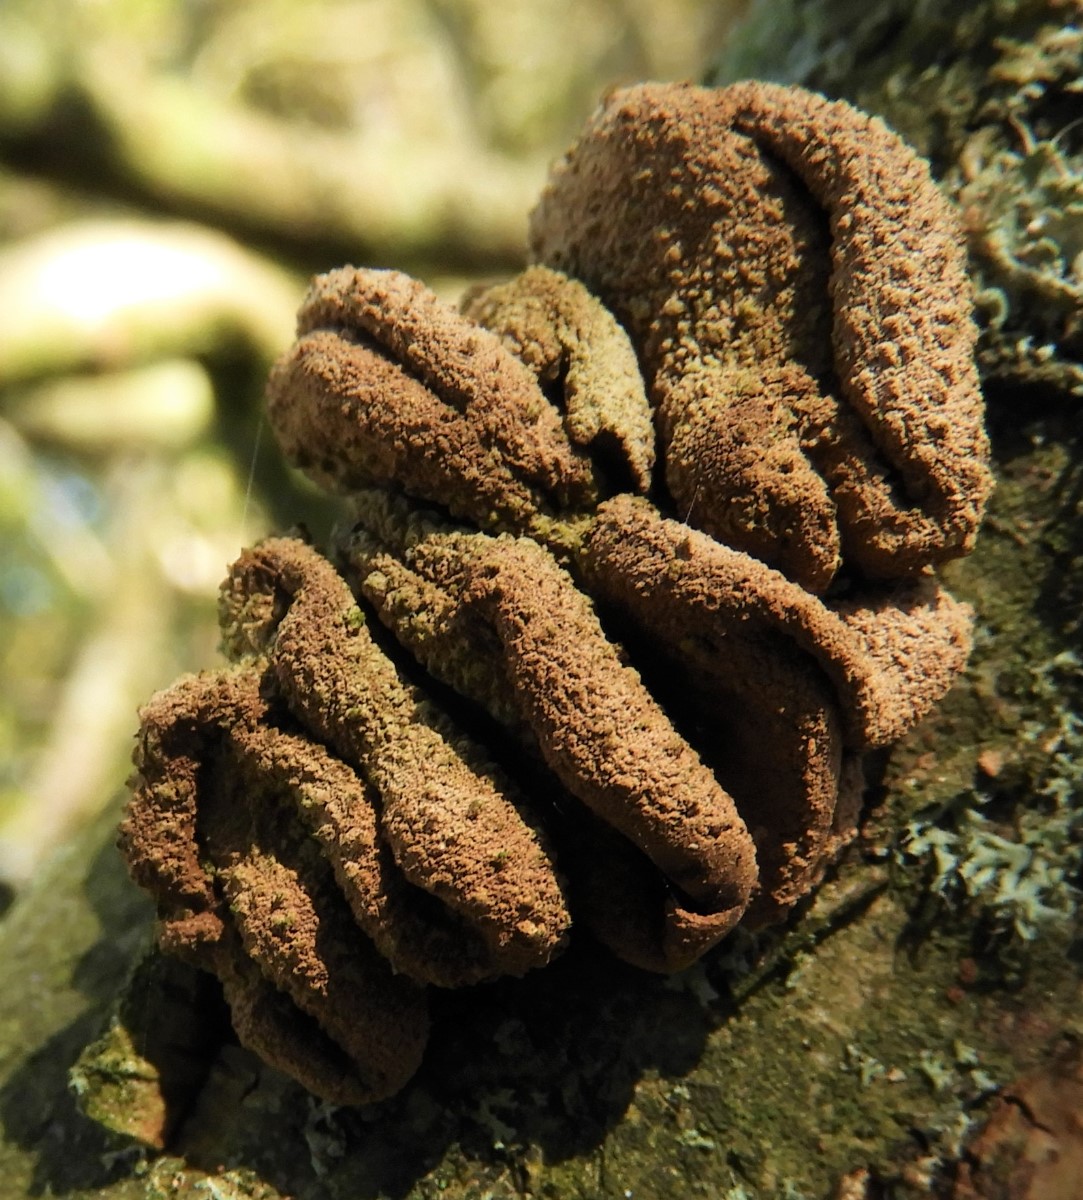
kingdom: Fungi
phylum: Ascomycota
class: Leotiomycetes
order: Helotiales
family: Cenangiaceae
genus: Encoelia
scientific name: Encoelia furfuracea
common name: hassel-læderskive
